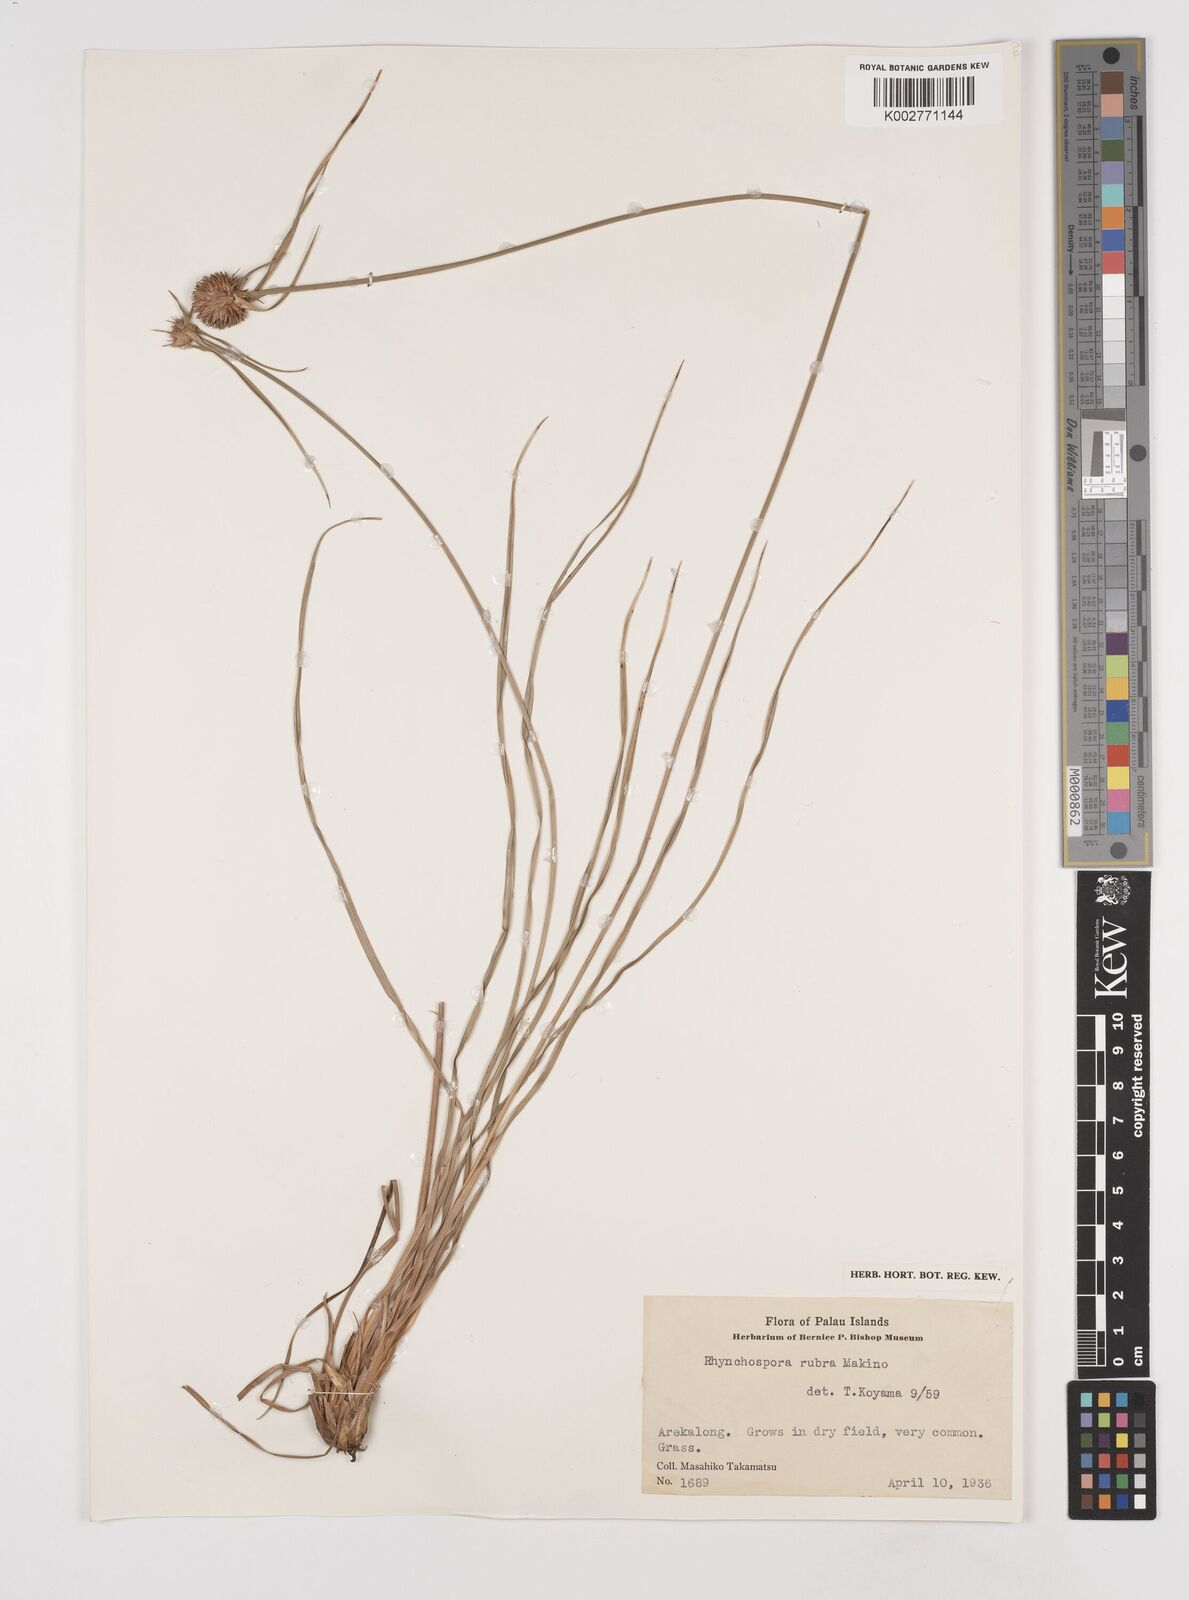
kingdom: Plantae
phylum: Tracheophyta
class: Liliopsida
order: Poales
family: Cyperaceae
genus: Rhynchospora
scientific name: Rhynchospora rubra
